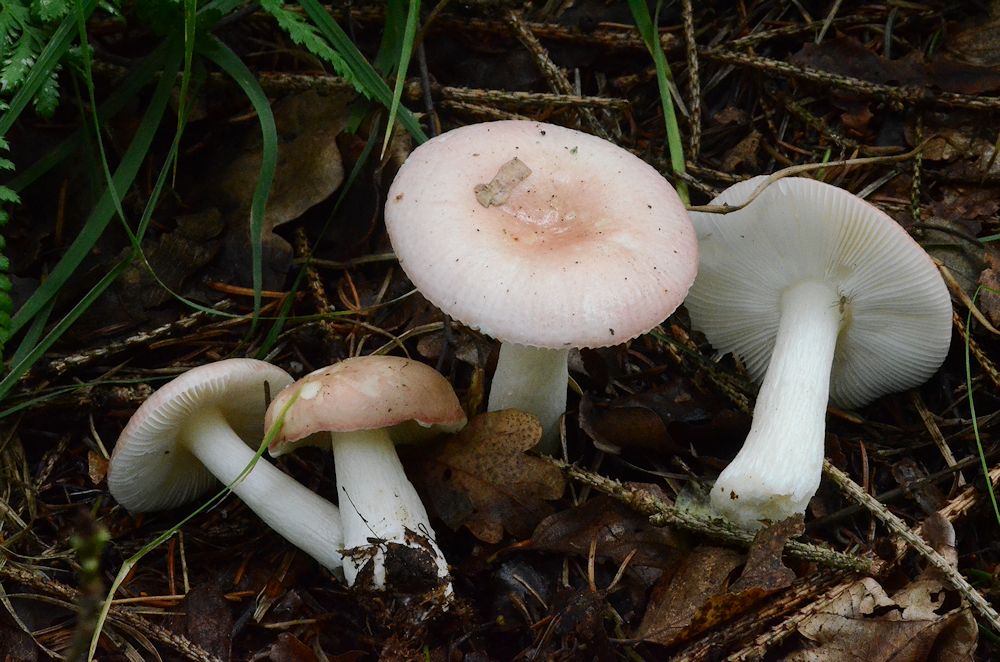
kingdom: Fungi
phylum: Basidiomycota
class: Agaricomycetes
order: Russulales
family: Russulaceae
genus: Russula
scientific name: Russula betularum
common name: bleg gift-skørhat
